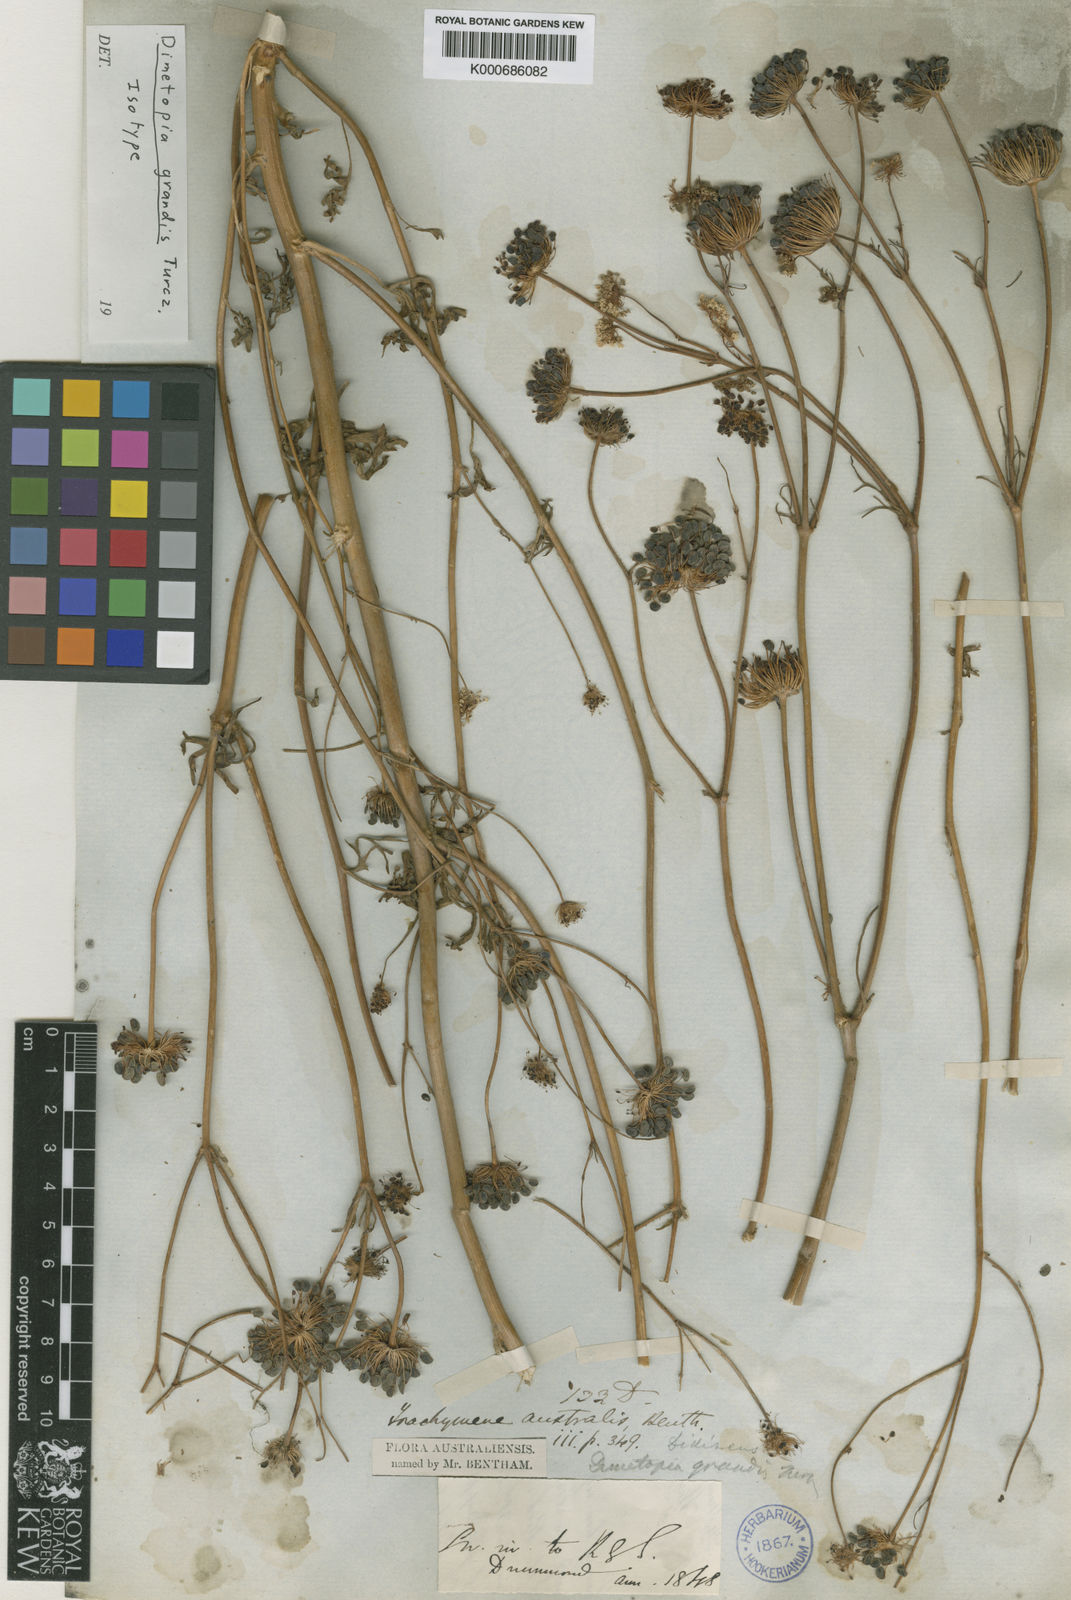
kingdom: Plantae
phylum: Tracheophyta
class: Magnoliopsida
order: Apiales
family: Araliaceae
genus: Trachymene
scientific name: Trachymene anisocarpa
